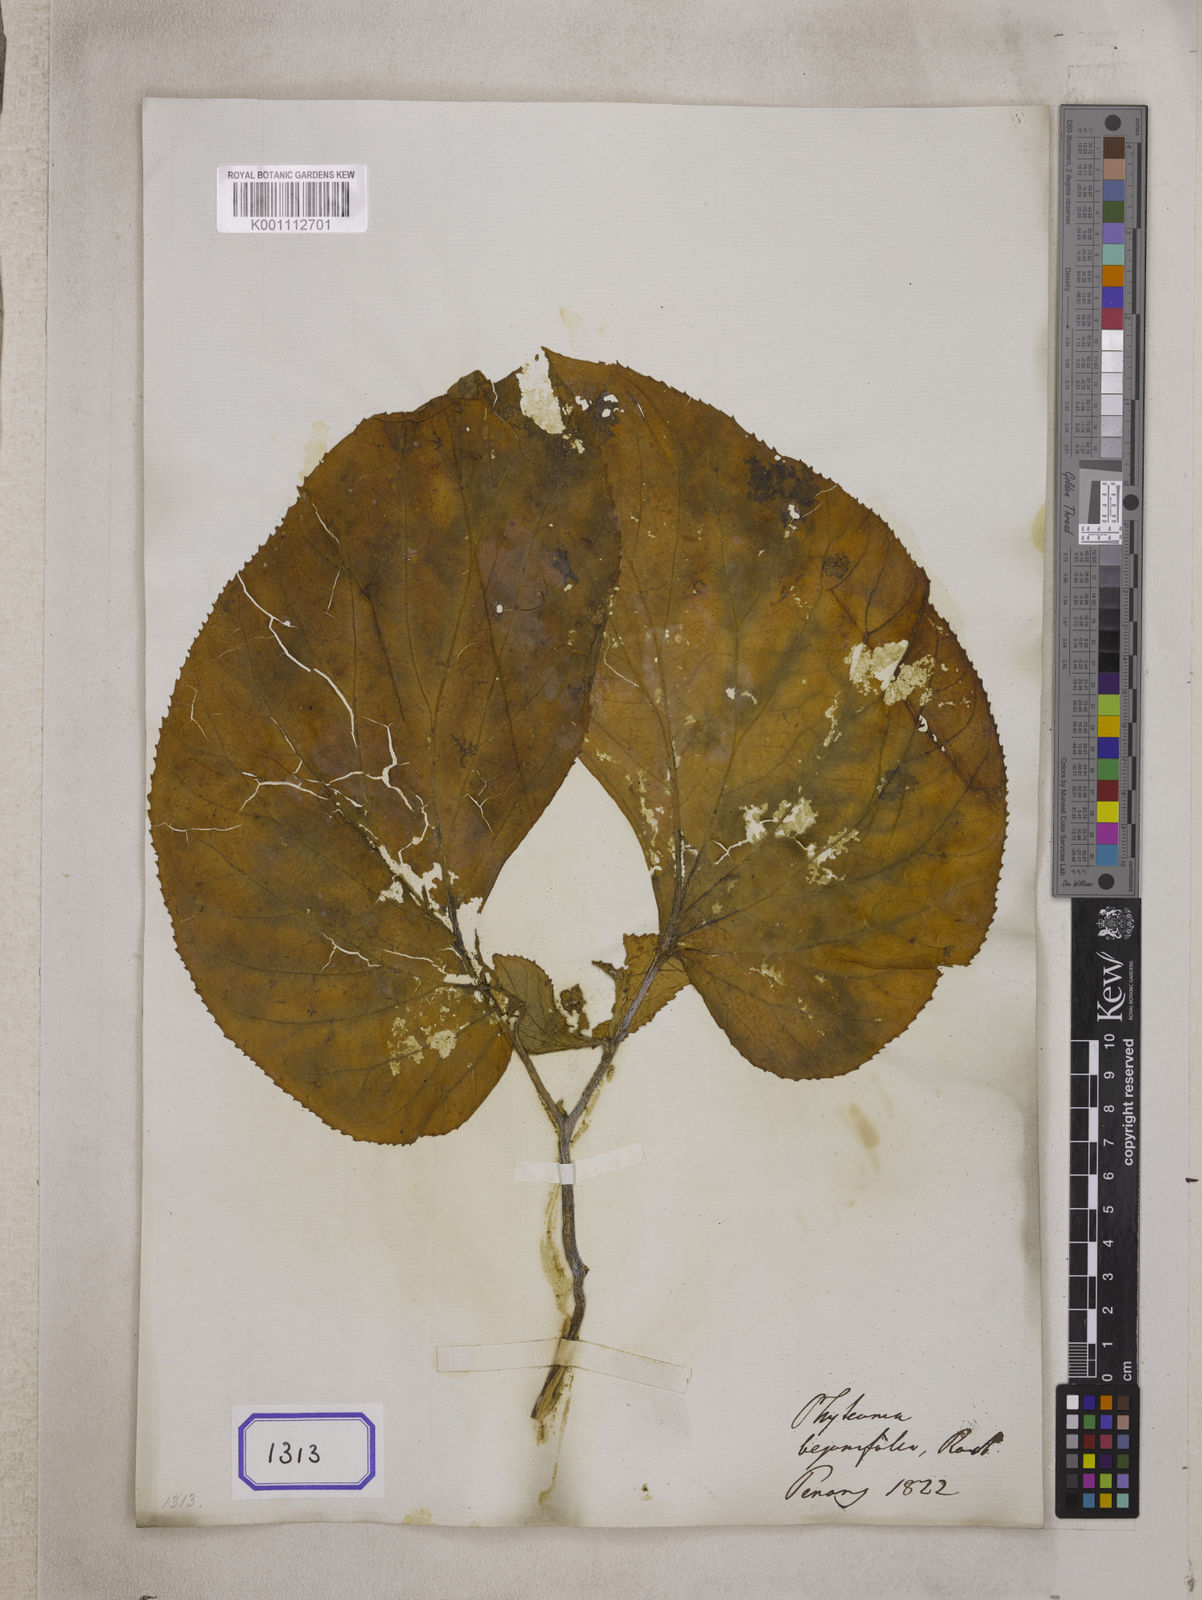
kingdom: Plantae
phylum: Tracheophyta
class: Magnoliopsida
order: Asterales
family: Pentaphragmataceae
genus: Pentaphragma
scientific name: Pentaphragma begoniifolium
